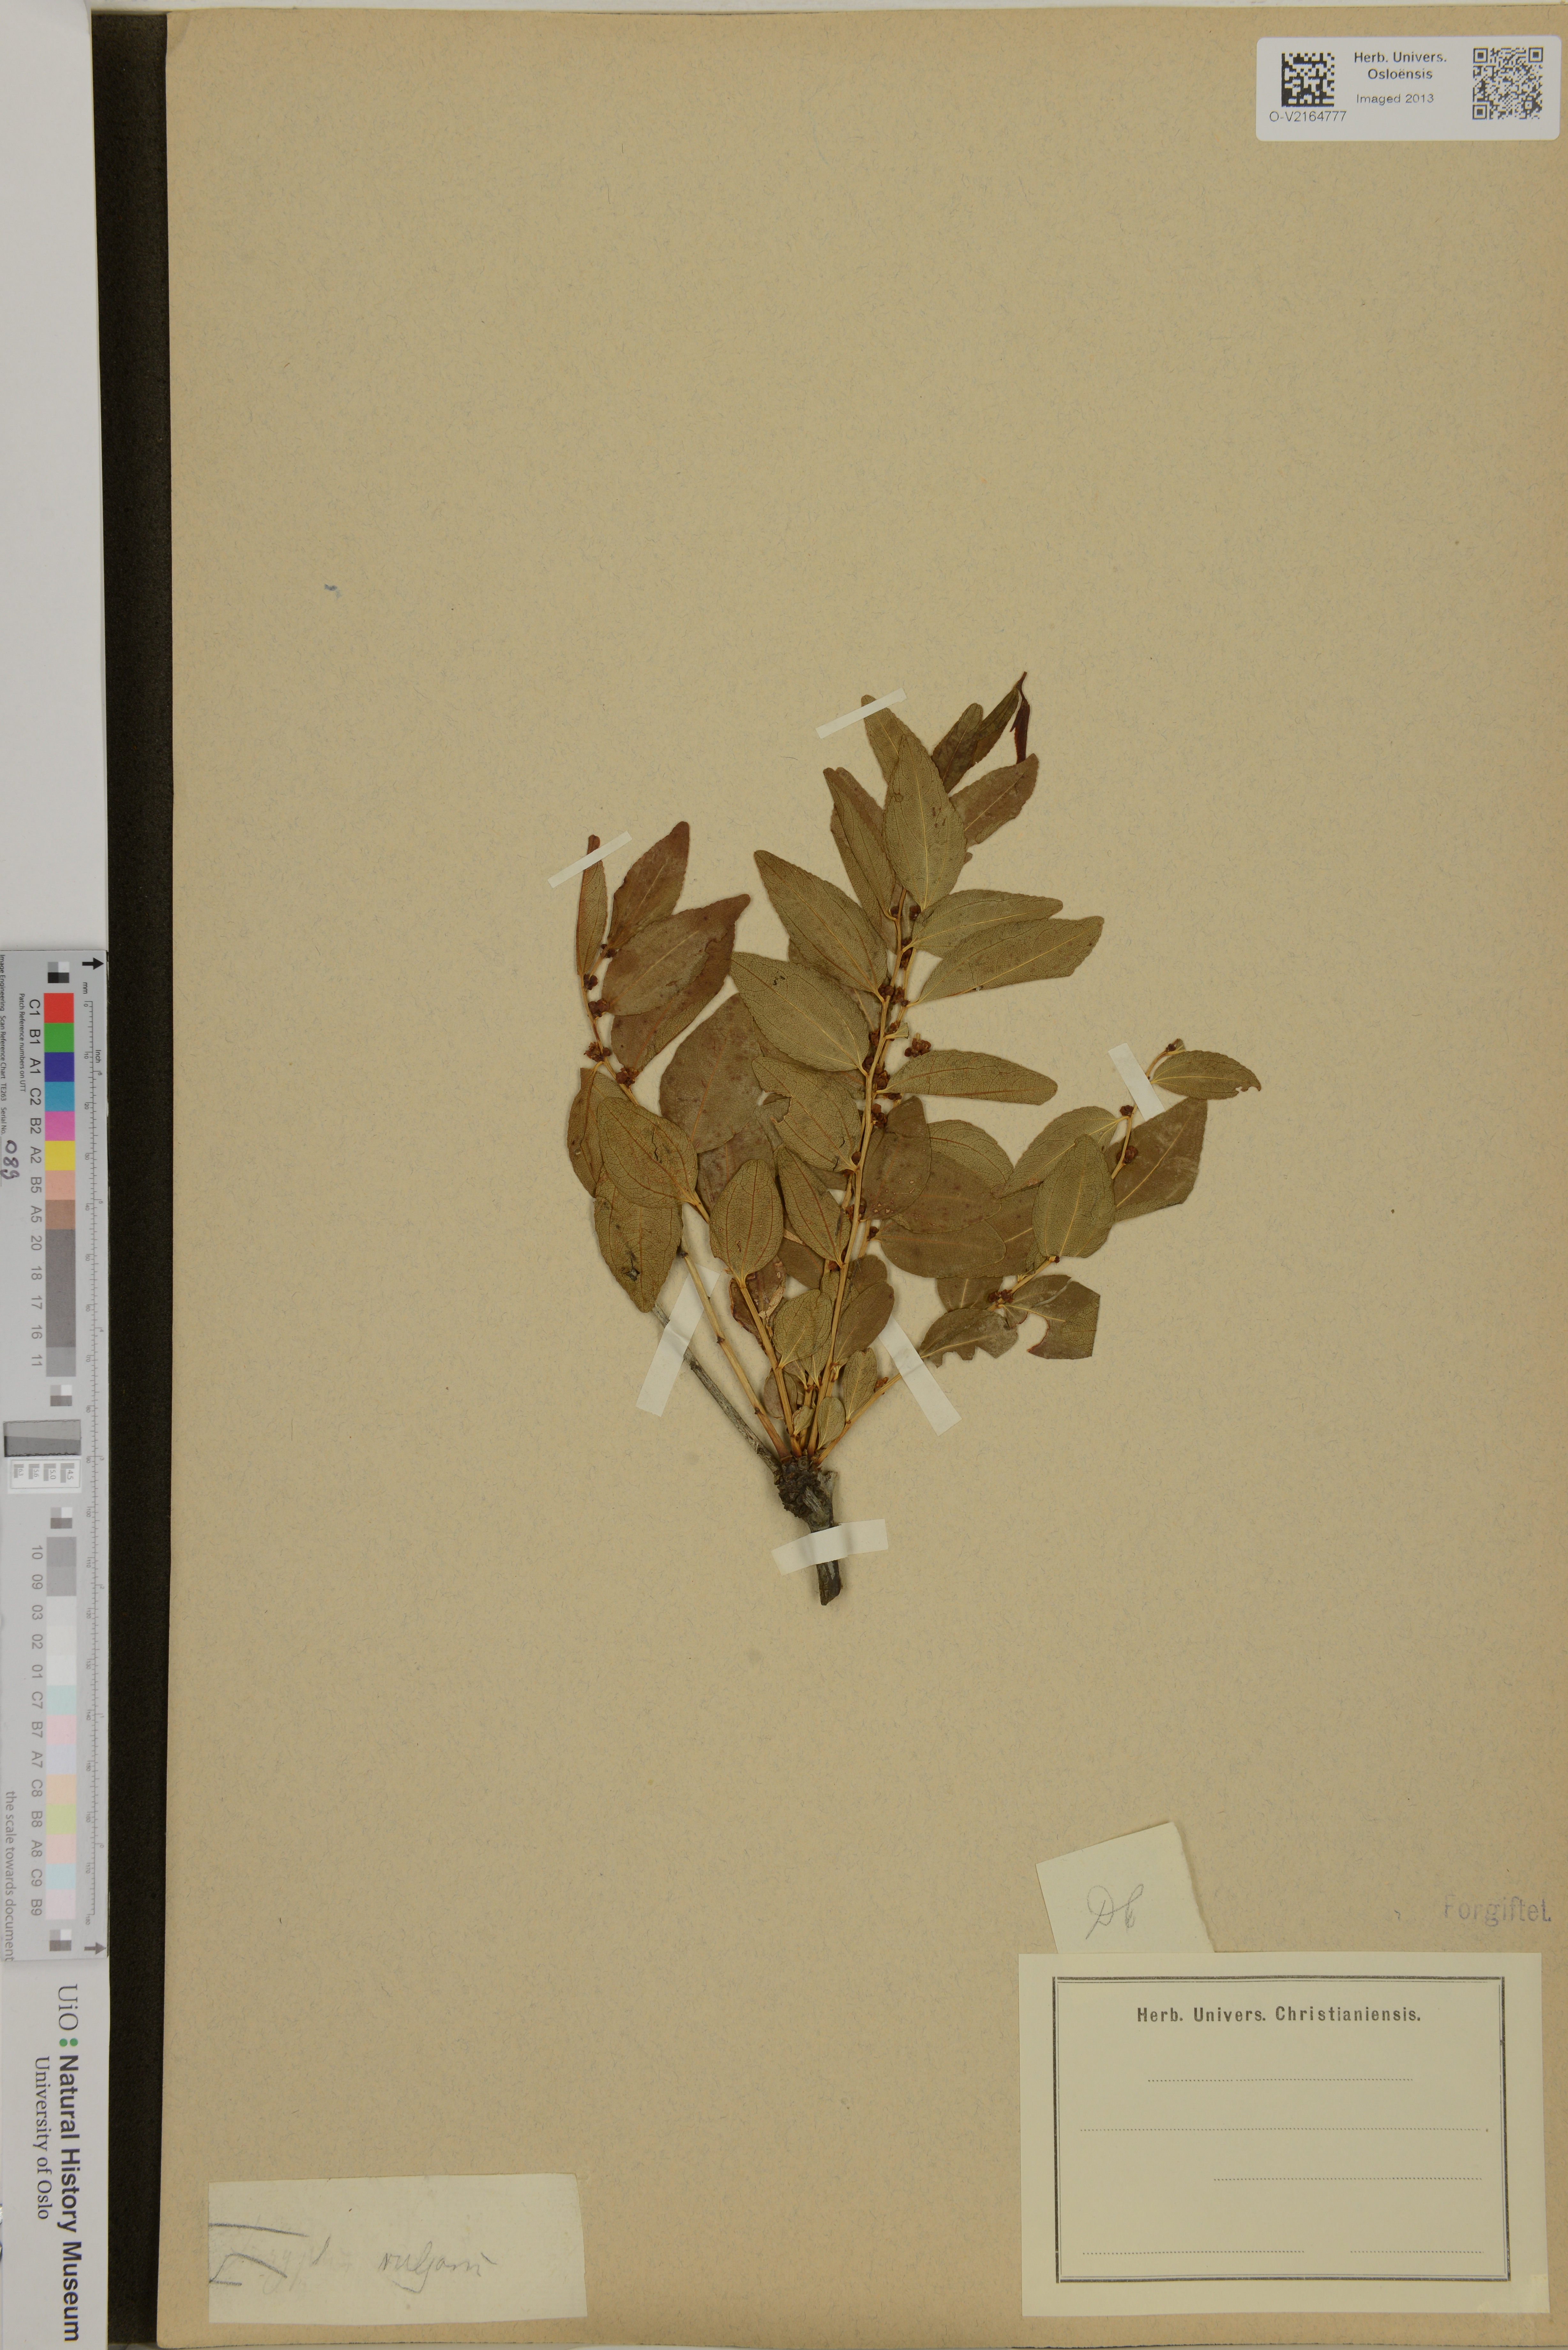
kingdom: Plantae
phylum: Tracheophyta
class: Magnoliopsida
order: Rosales
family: Rhamnaceae
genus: Ziziphus
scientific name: Ziziphus jujuba
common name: Jujube red date
